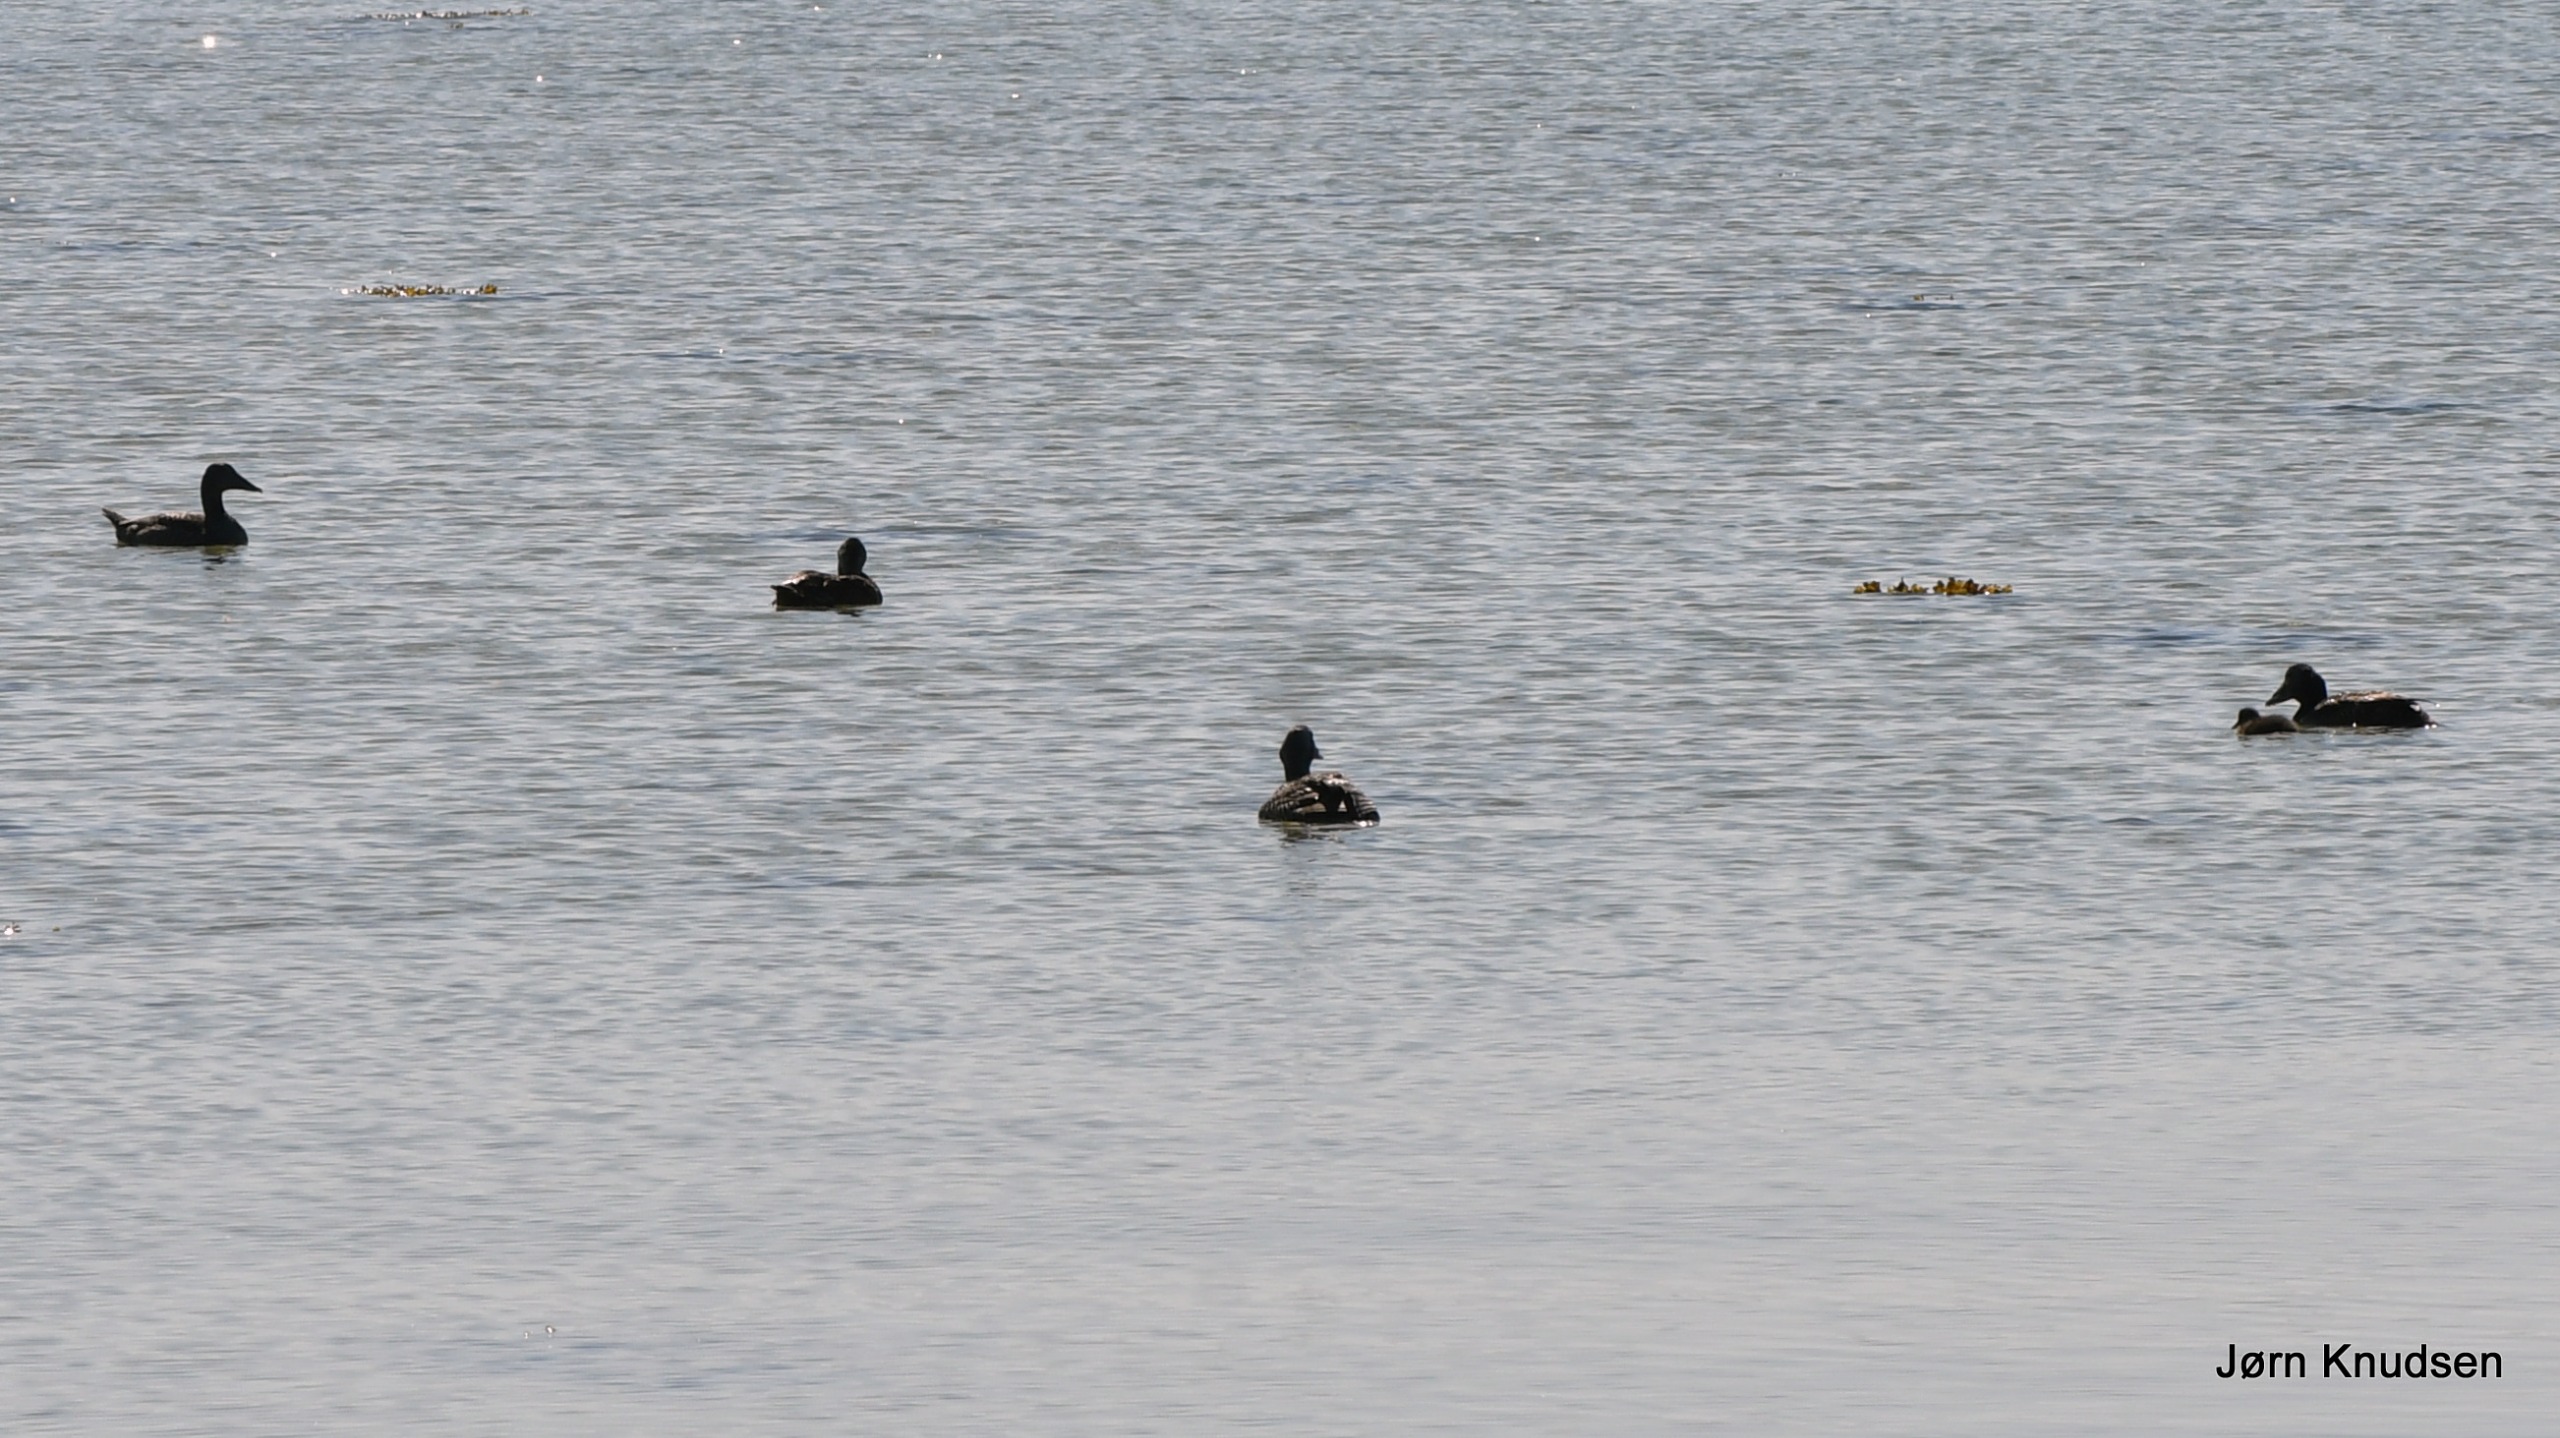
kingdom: Animalia
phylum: Chordata
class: Aves
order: Anseriformes
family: Anatidae
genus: Somateria
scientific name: Somateria mollissima
